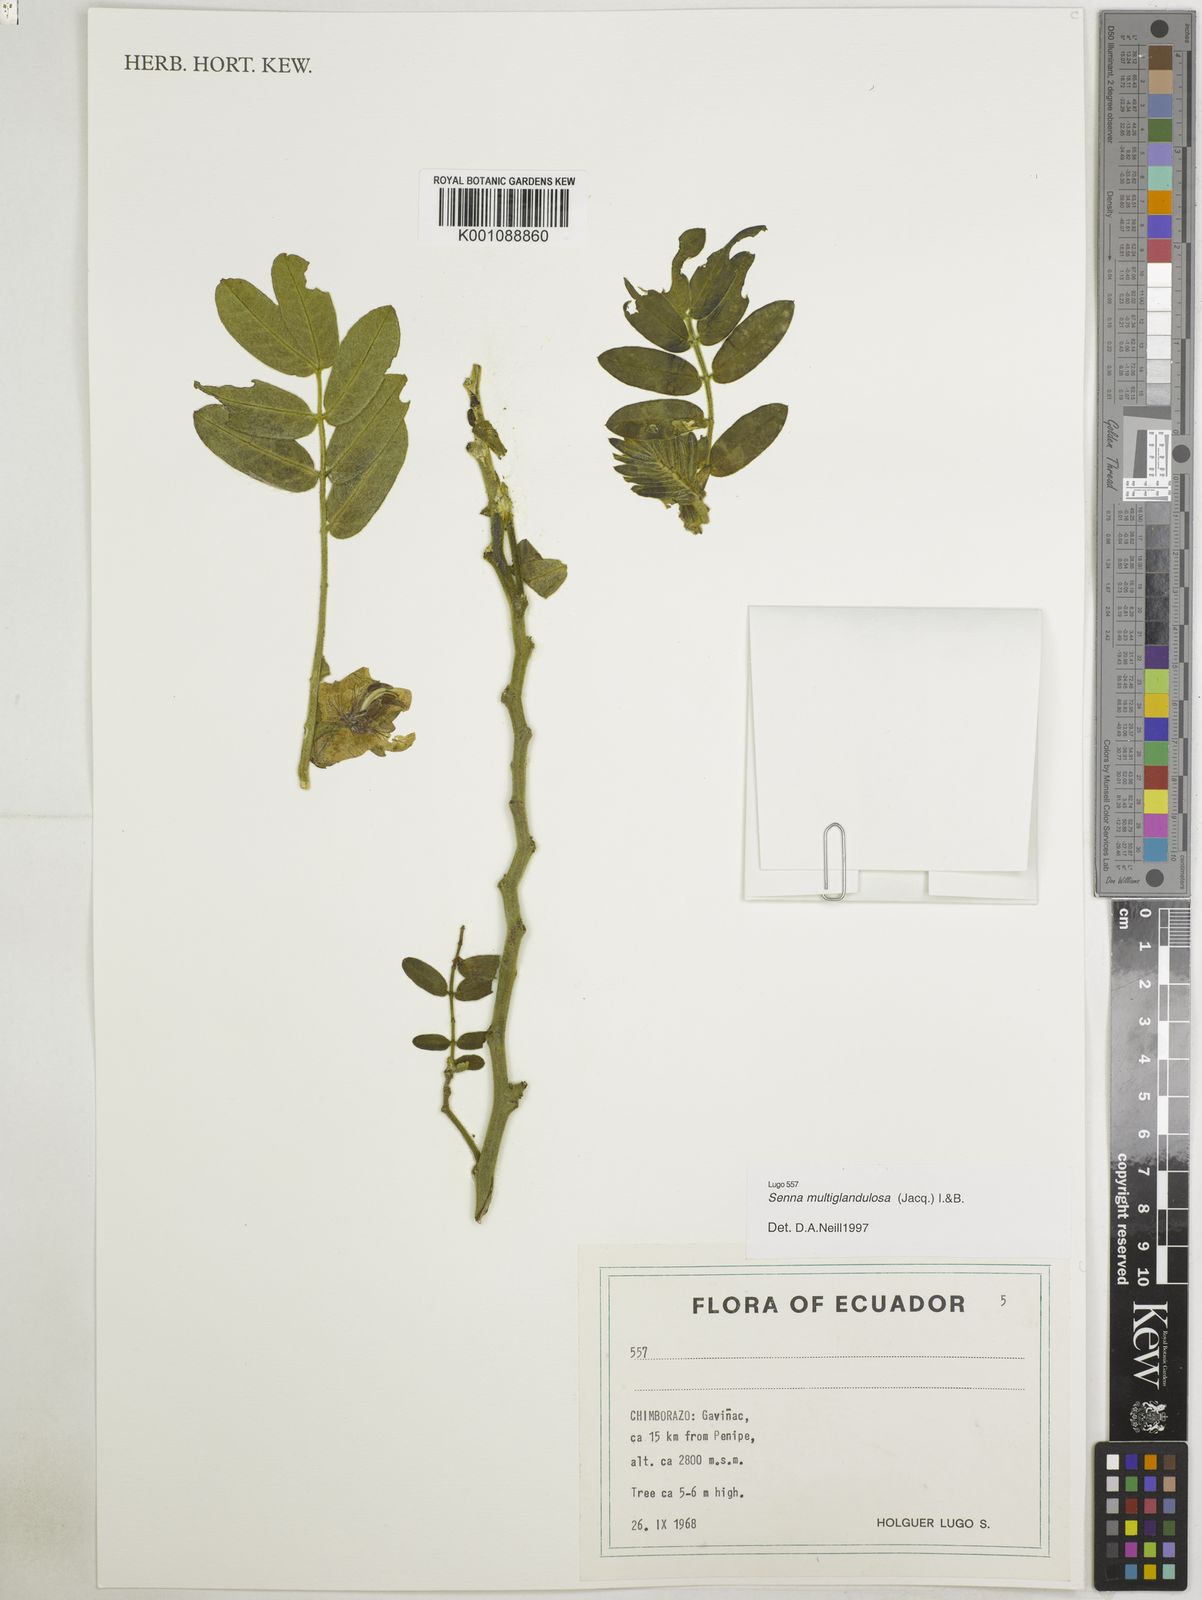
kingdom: Plantae
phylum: Tracheophyta
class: Magnoliopsida
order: Fabales
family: Fabaceae
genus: Senna
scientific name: Senna multiglandulosa
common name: Glandular senna
